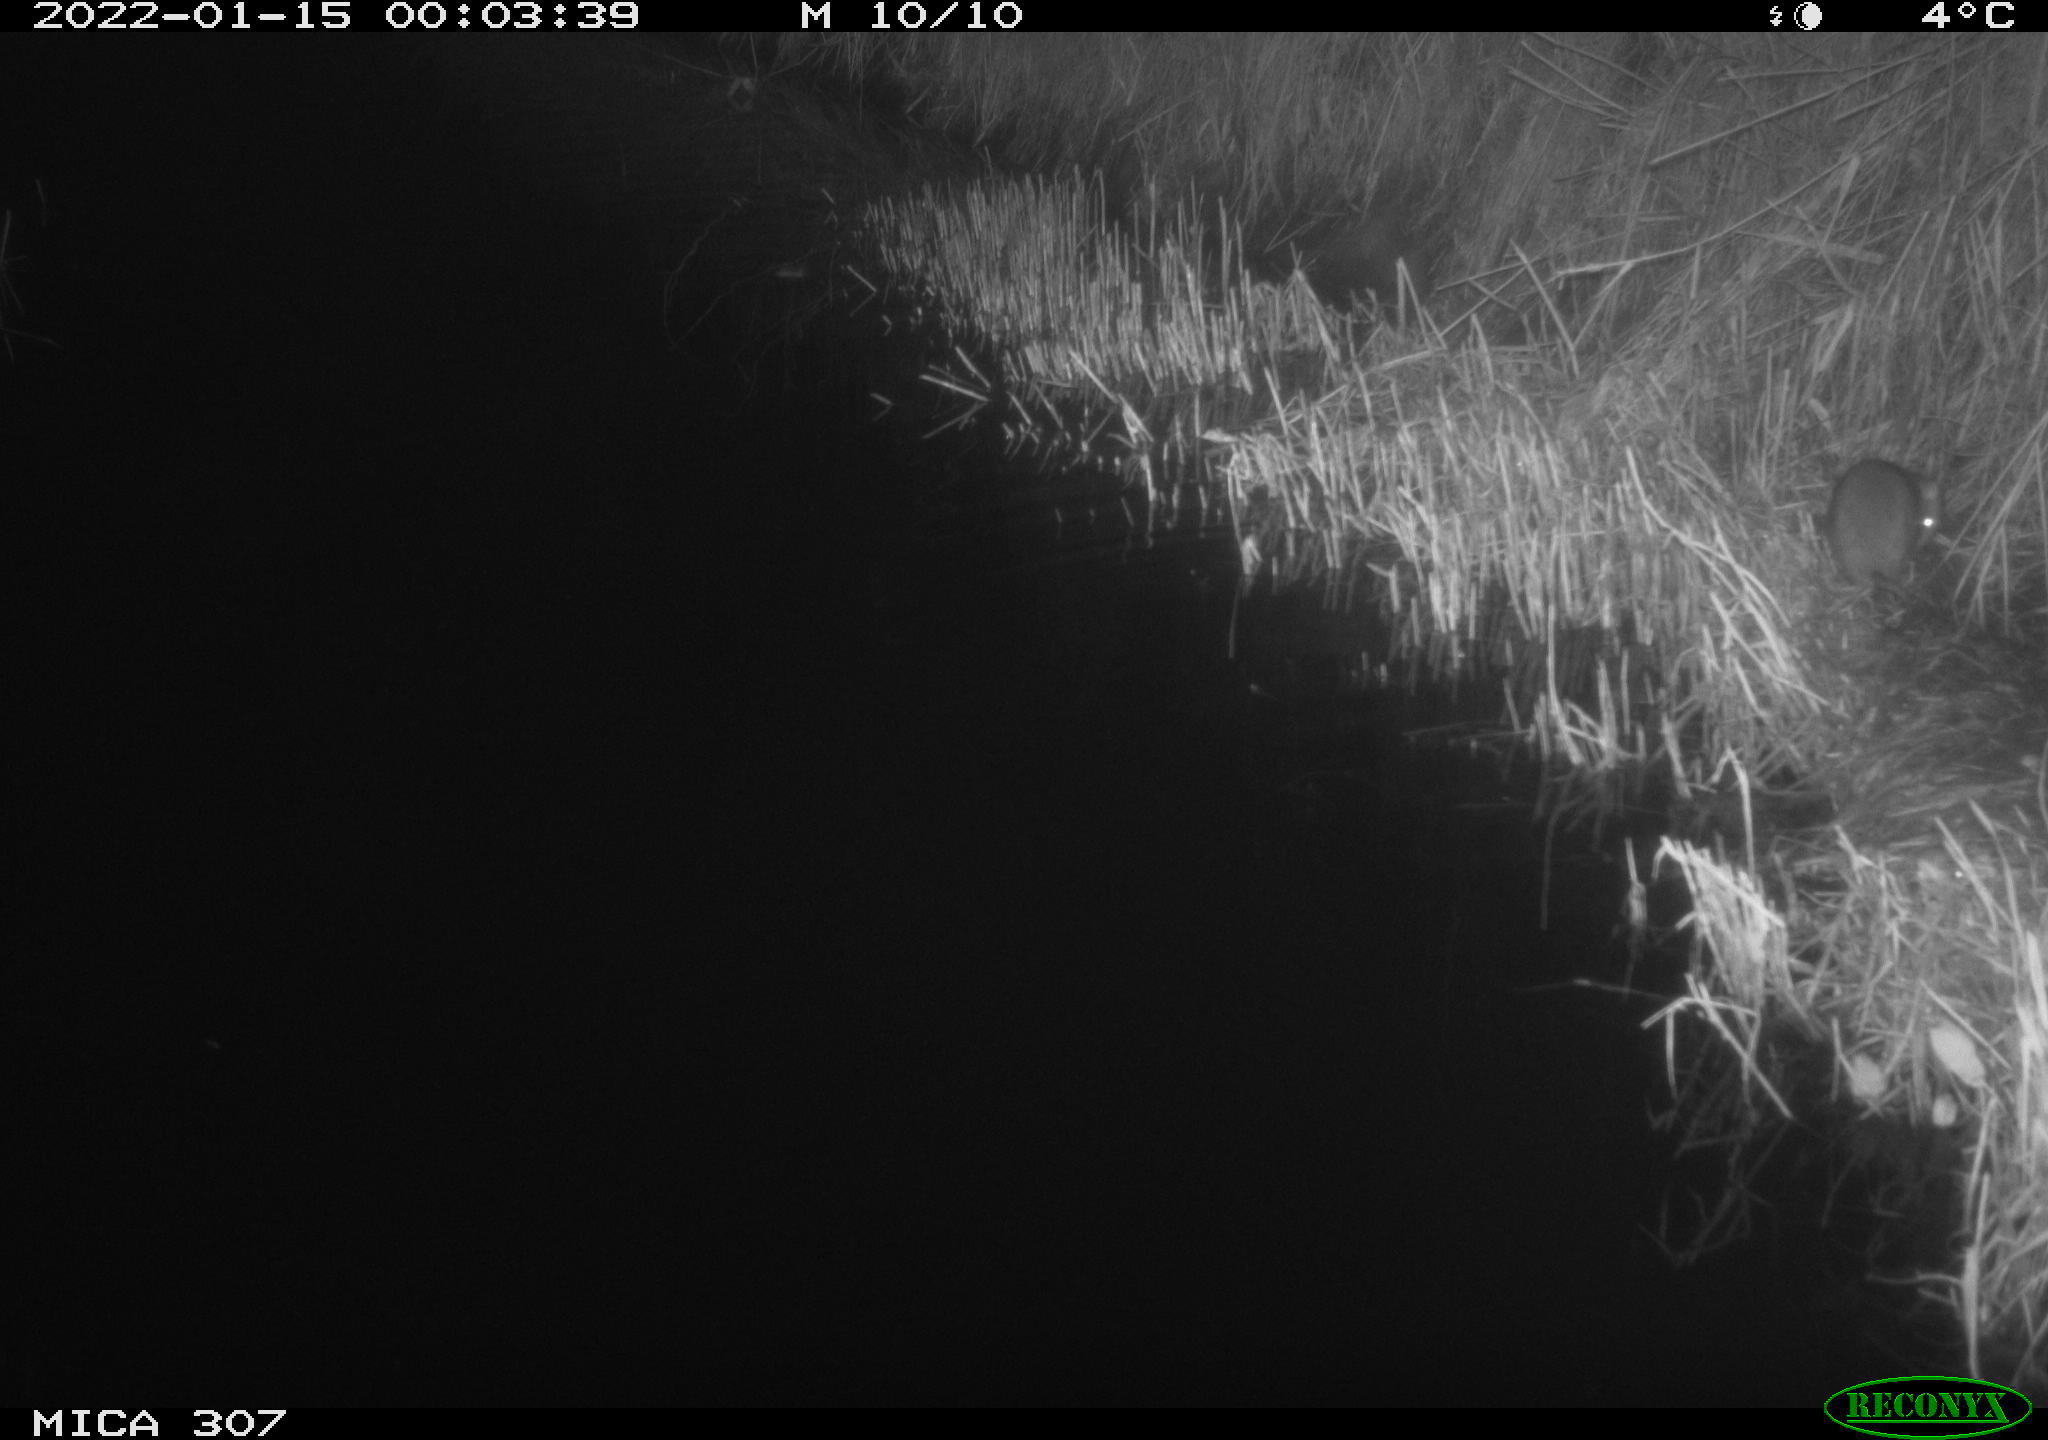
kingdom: Animalia
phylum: Chordata
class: Mammalia
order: Rodentia
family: Muridae
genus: Rattus
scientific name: Rattus norvegicus
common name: Brown rat
